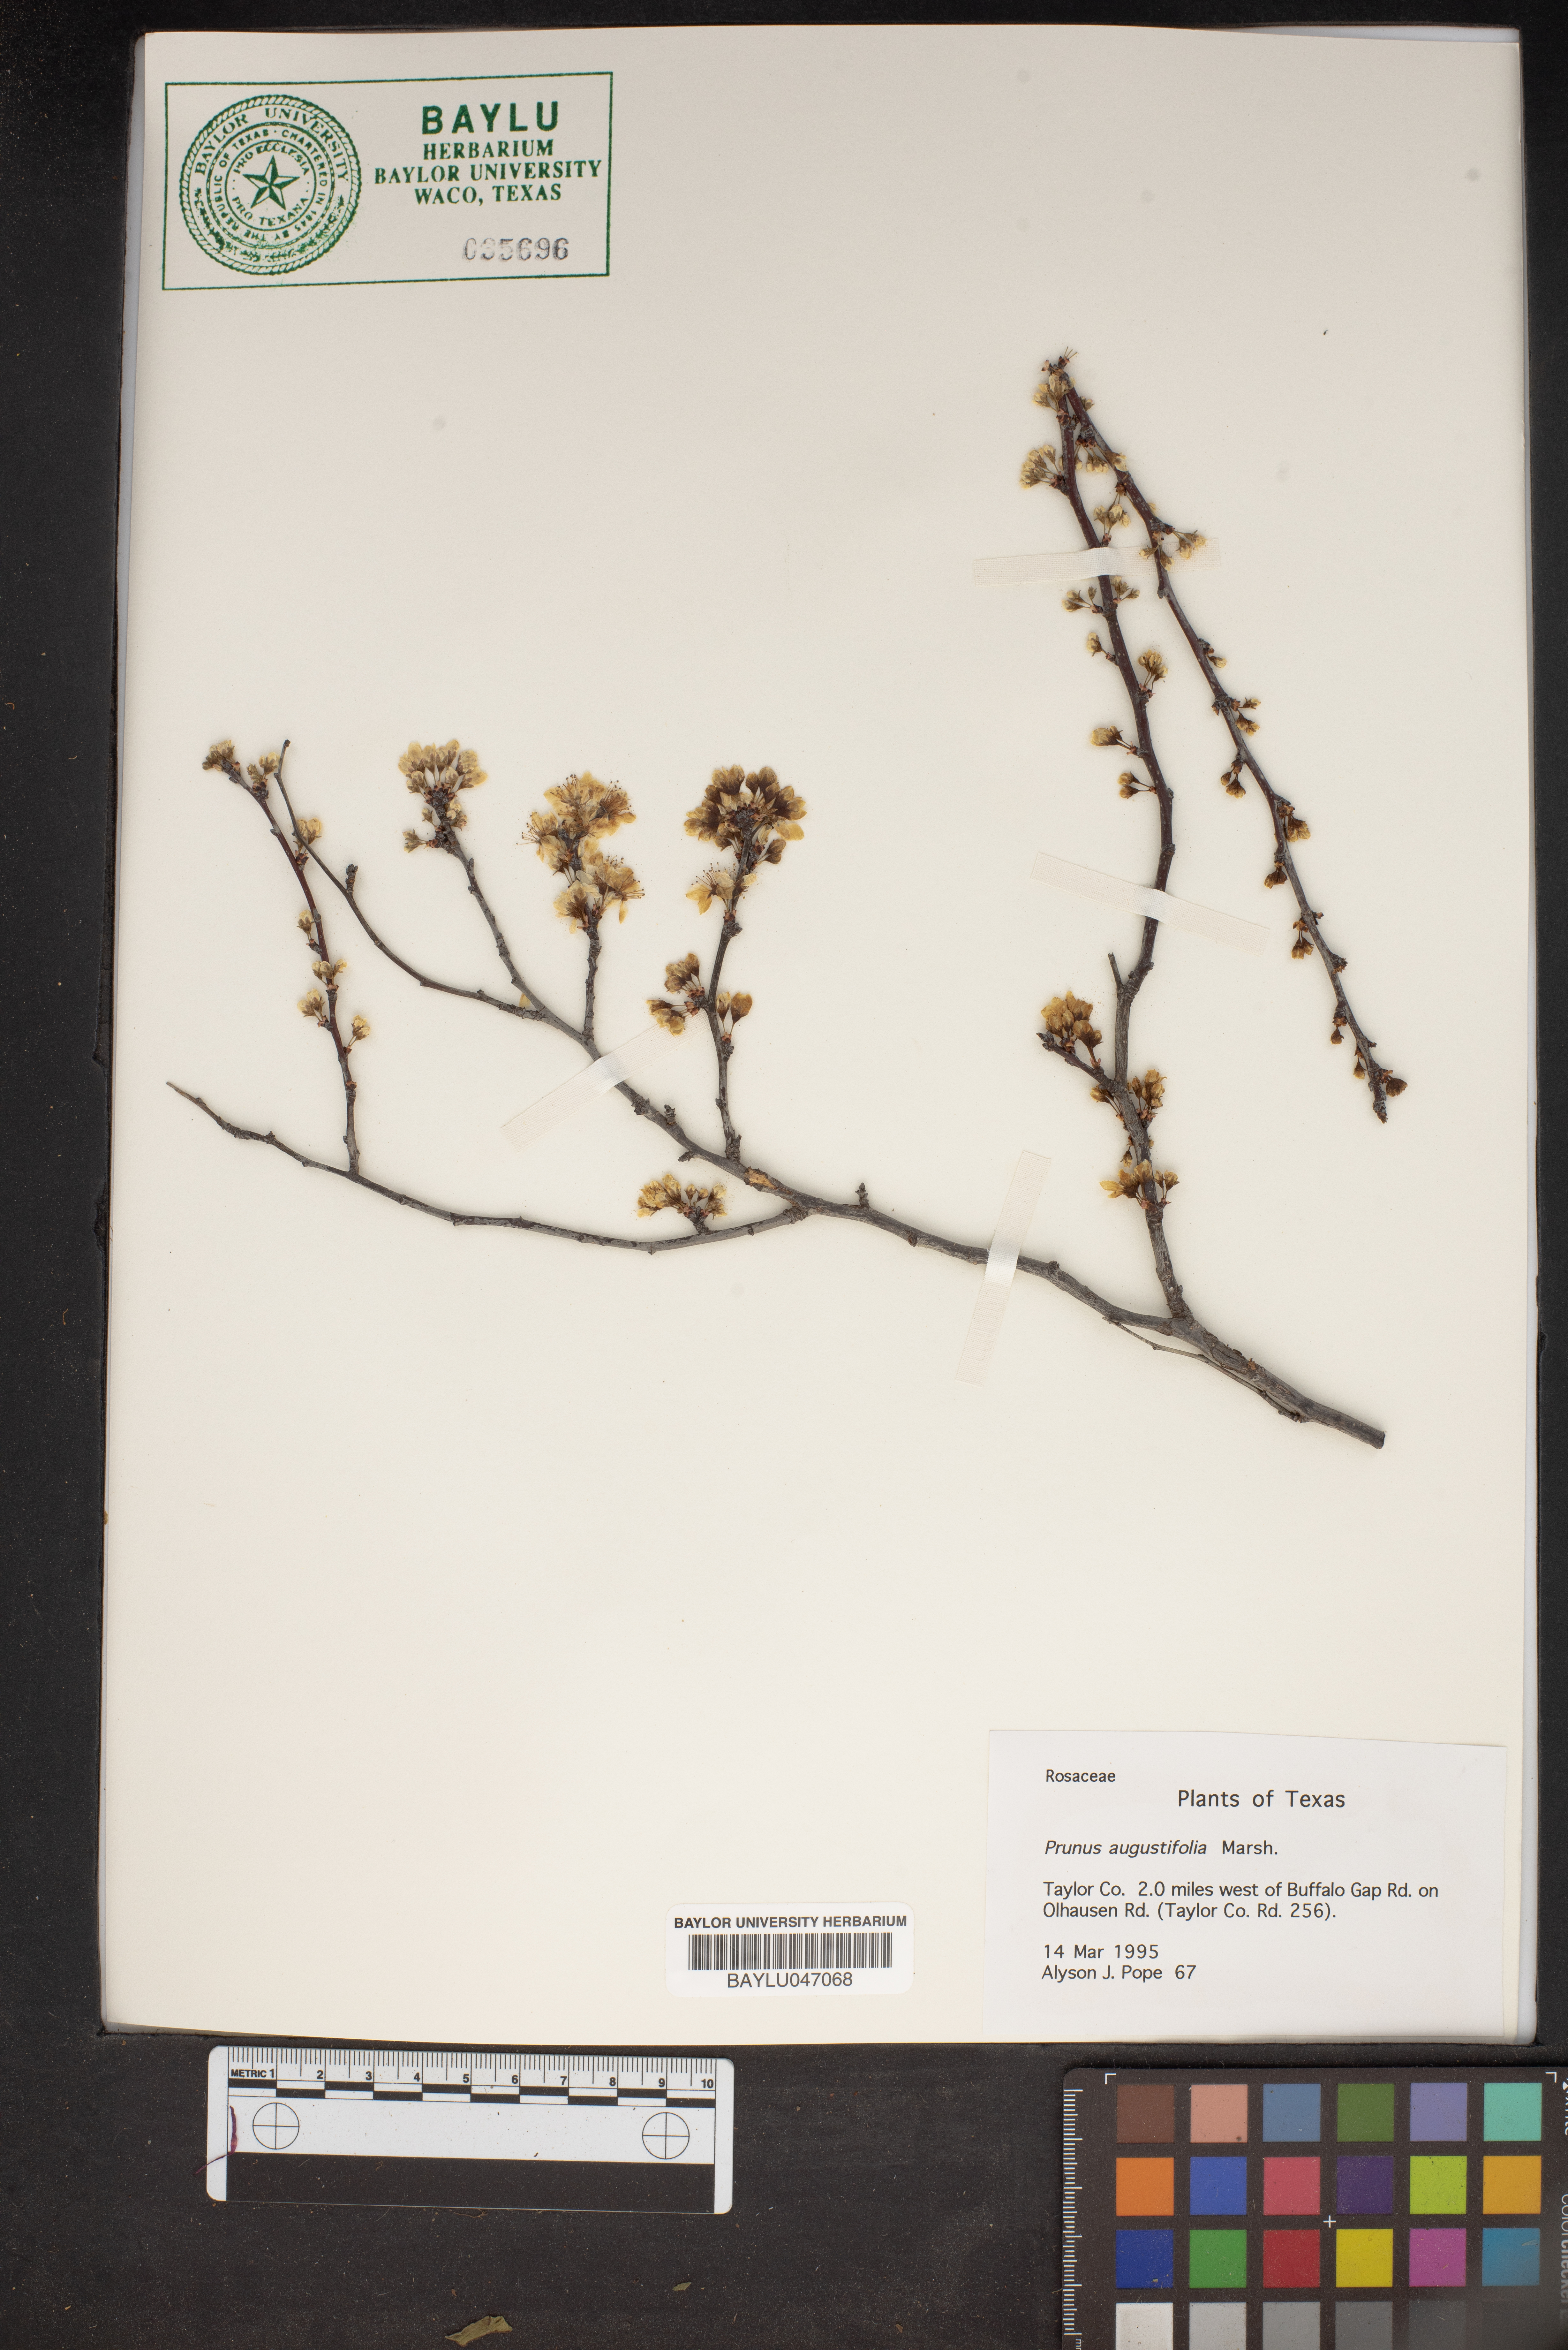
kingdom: Plantae
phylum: Tracheophyta
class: Magnoliopsida
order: Rosales
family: Rosaceae
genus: Prunus
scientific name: Prunus angustifolia
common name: Cherokee plum
